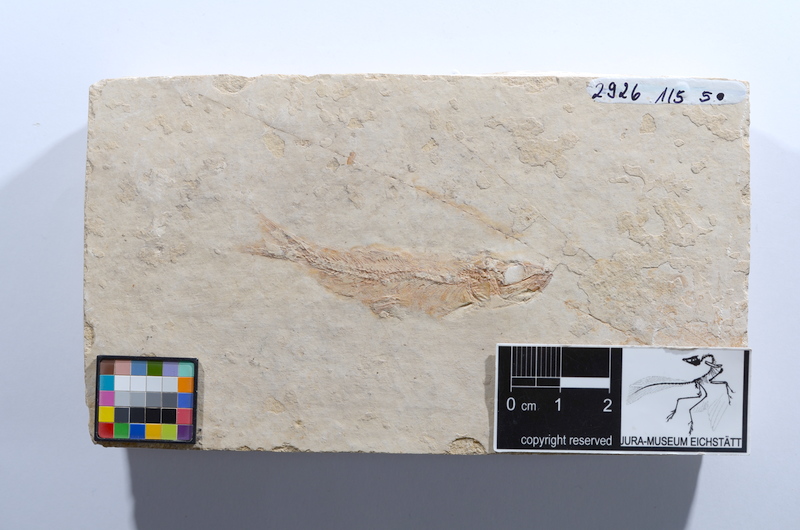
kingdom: Animalia
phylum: Chordata
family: Ascalaboidae
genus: Tharsis
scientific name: Tharsis dubius
